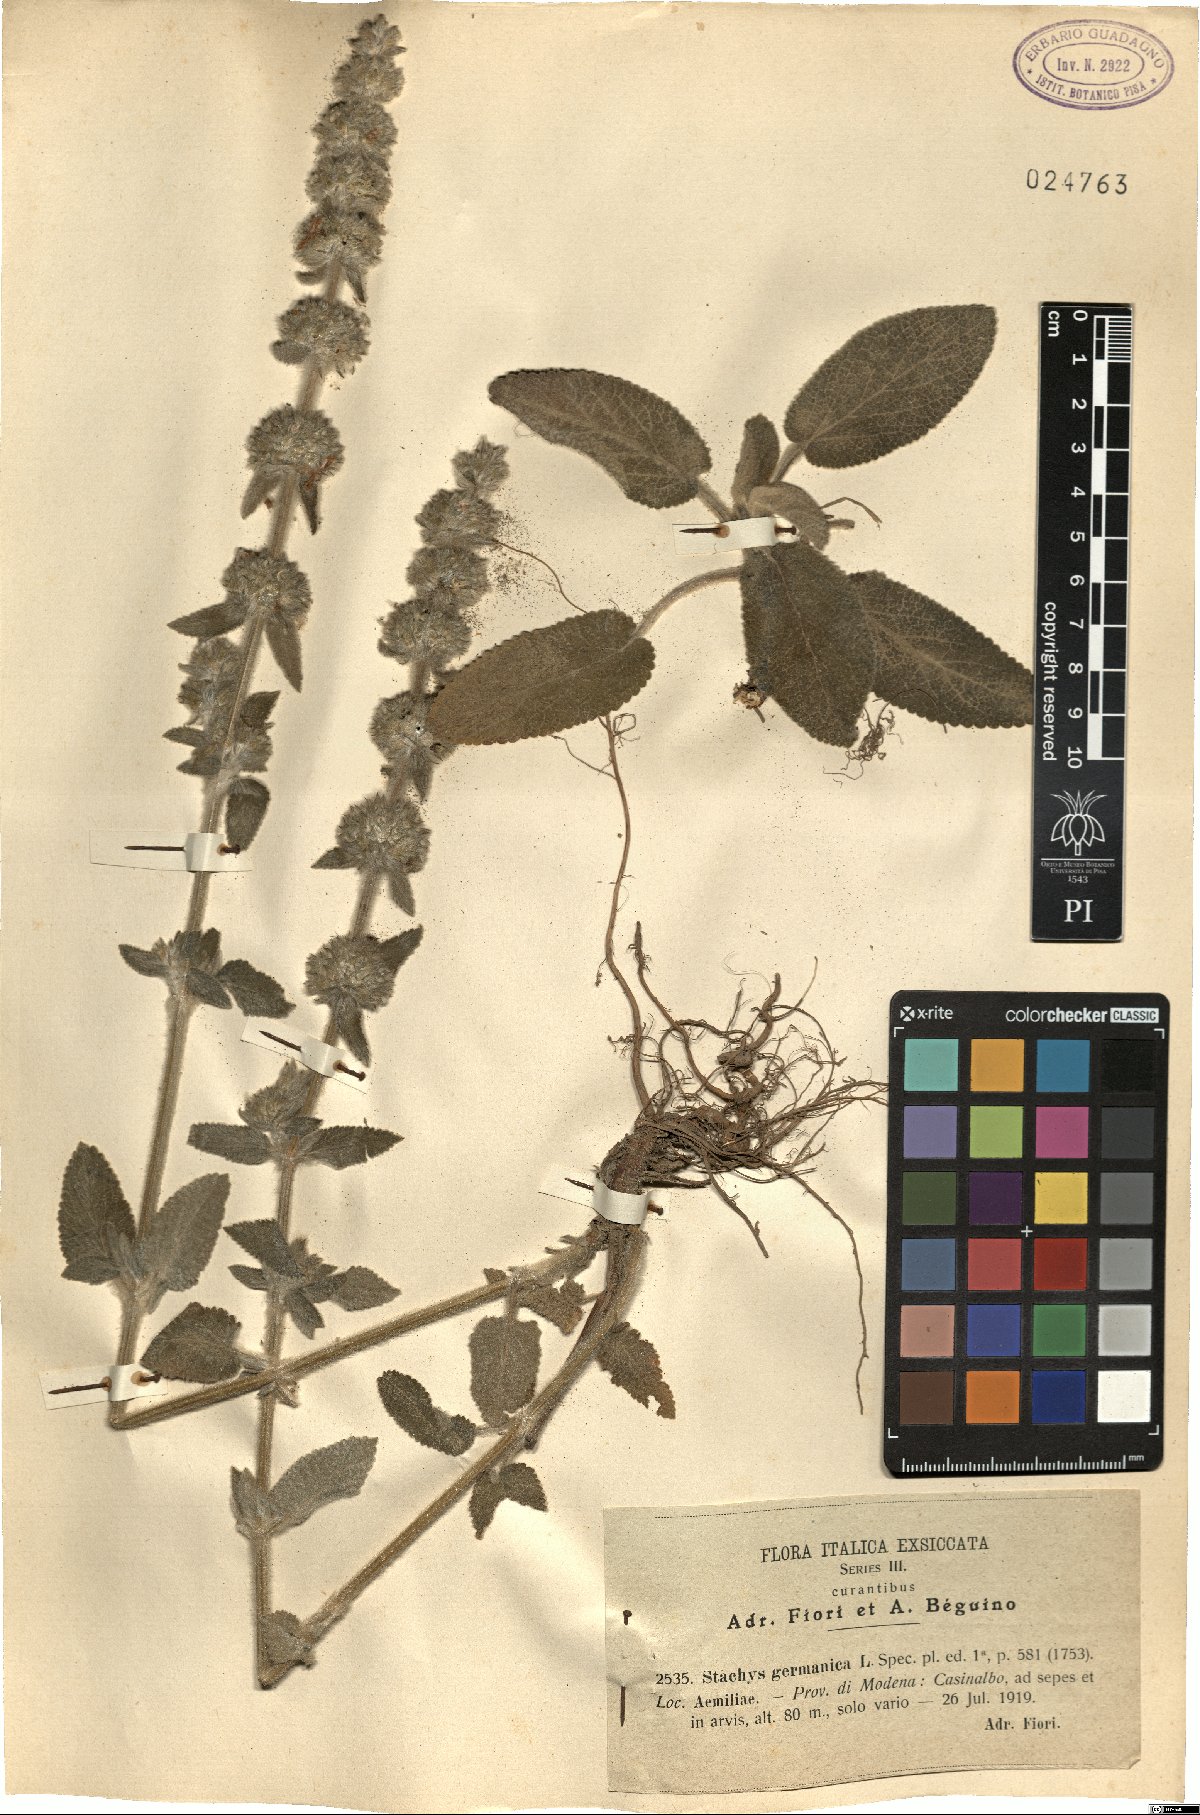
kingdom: Plantae
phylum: Tracheophyta
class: Magnoliopsida
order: Lamiales
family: Lamiaceae
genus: Stachys
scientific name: Stachys germanica
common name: Downy woundwort
